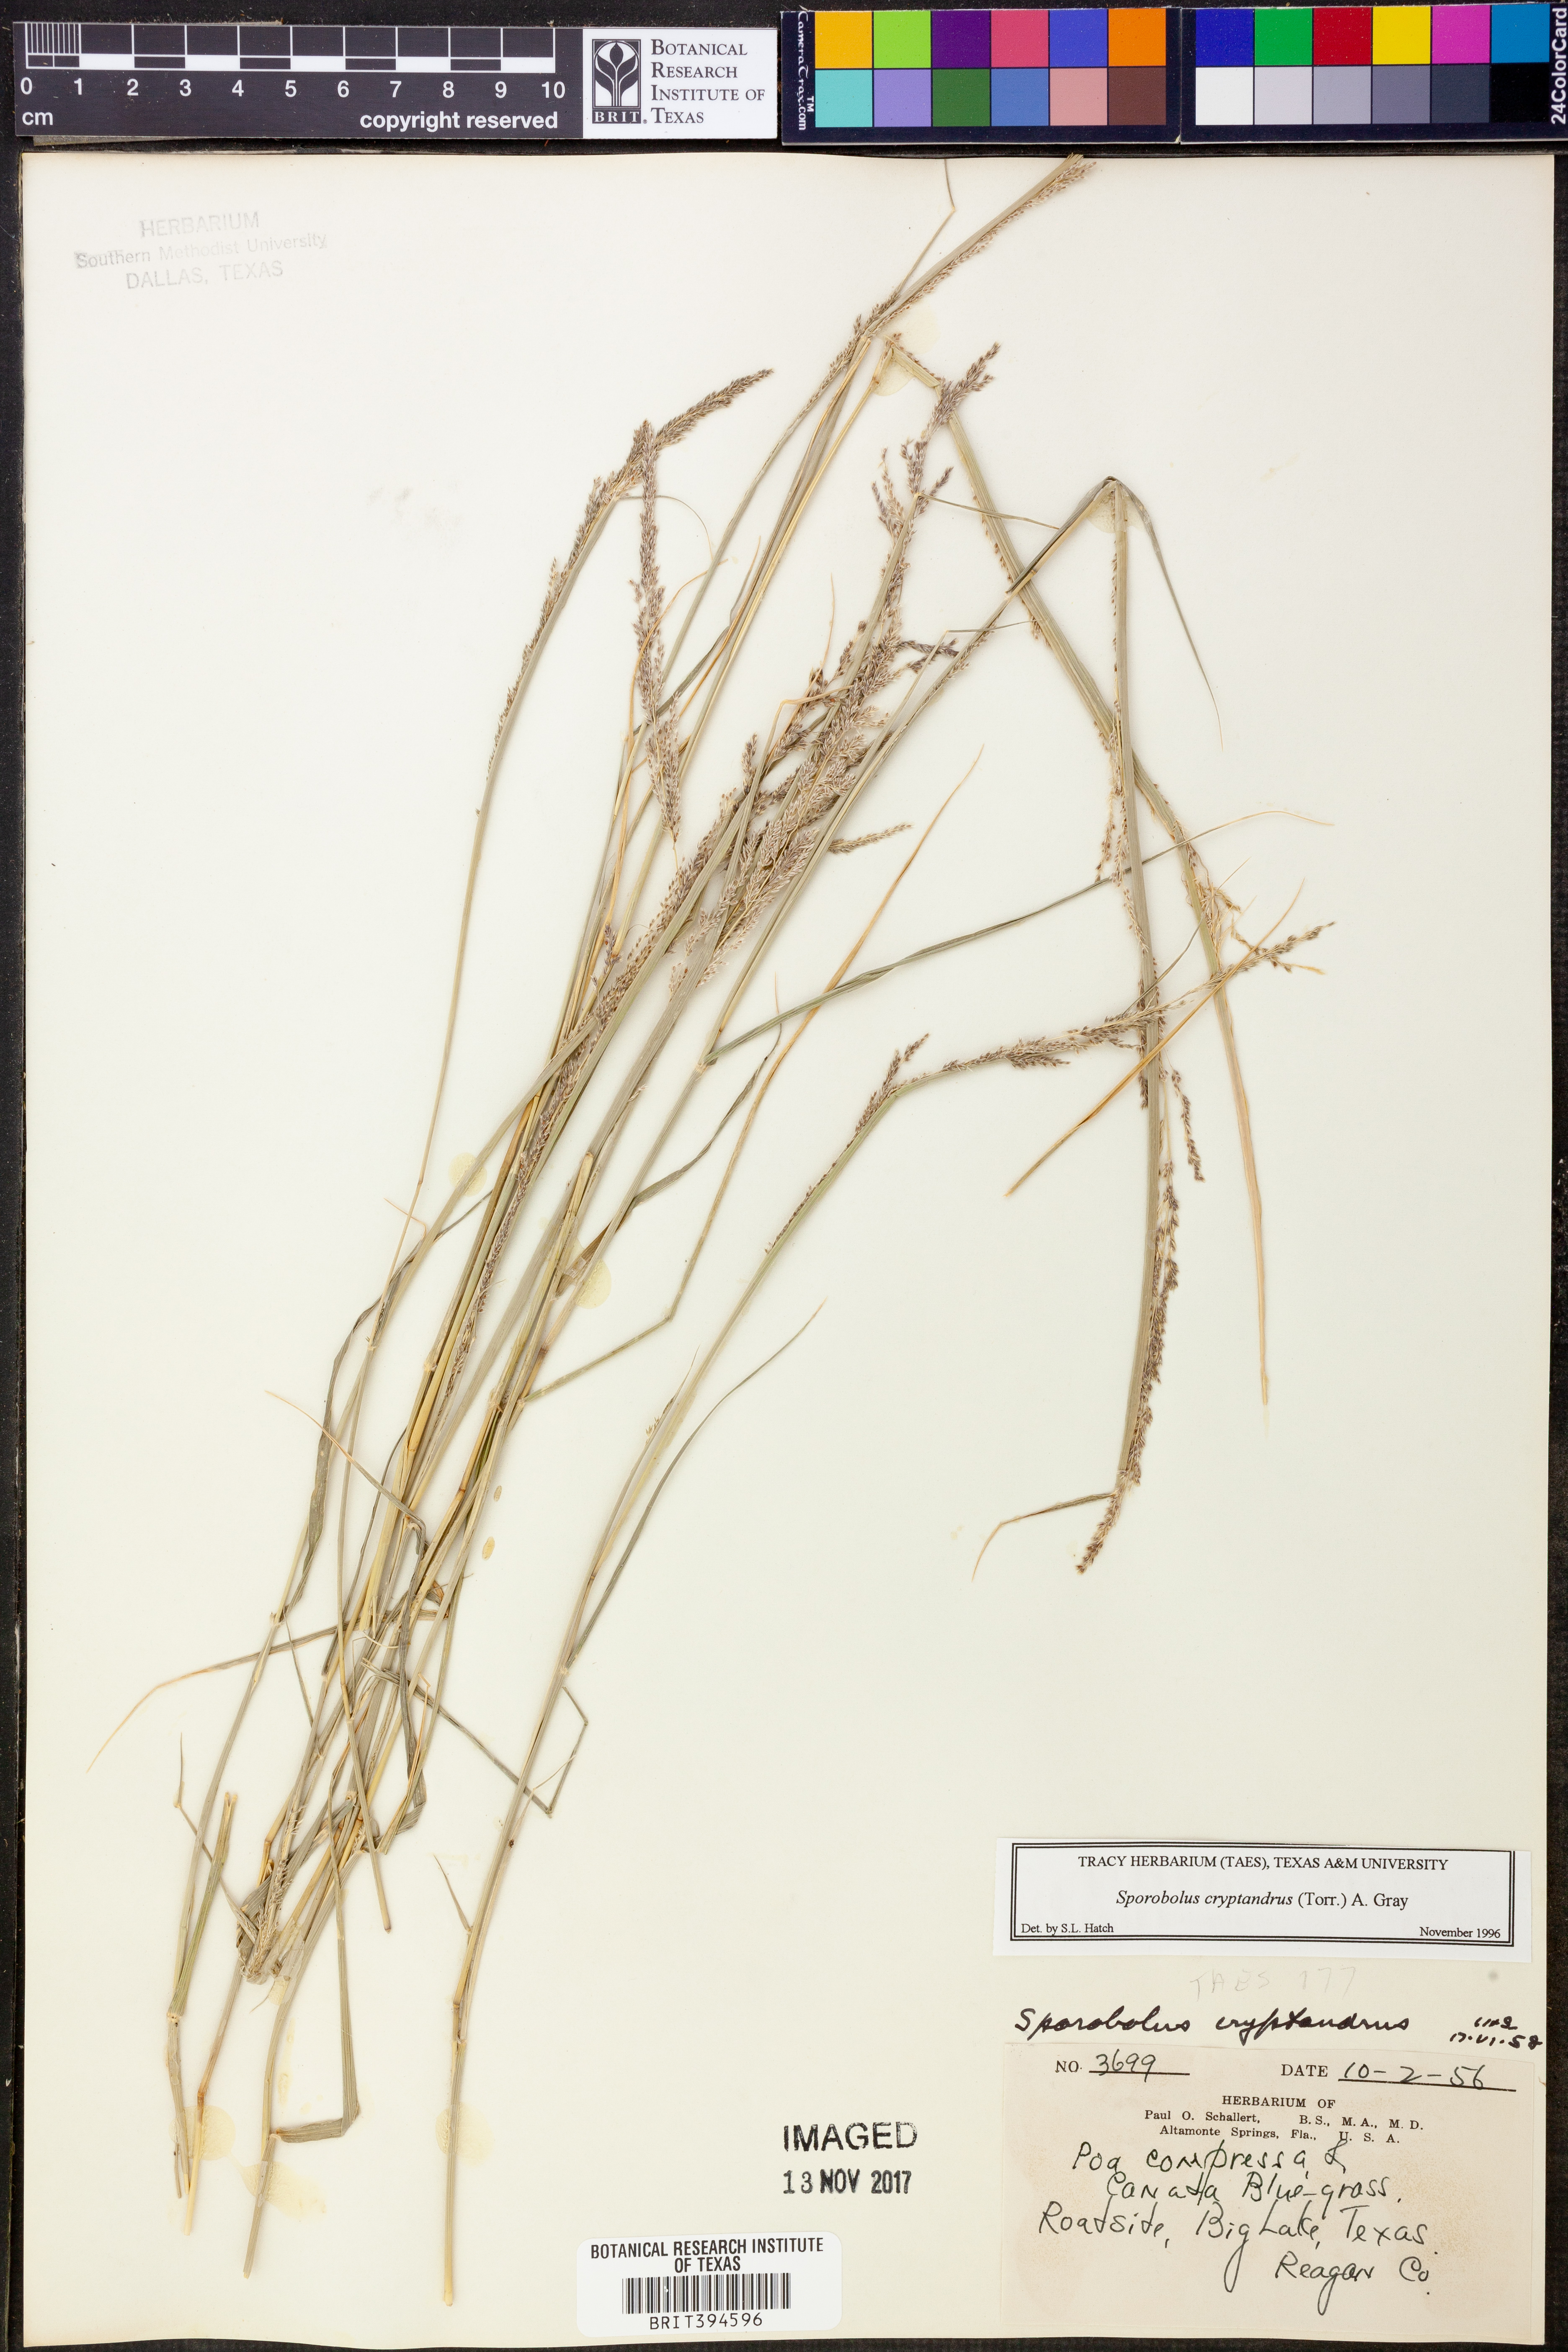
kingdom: Plantae
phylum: Tracheophyta
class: Liliopsida
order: Poales
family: Poaceae
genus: Sporobolus
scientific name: Sporobolus cryptandrus
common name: Sand dropseed
